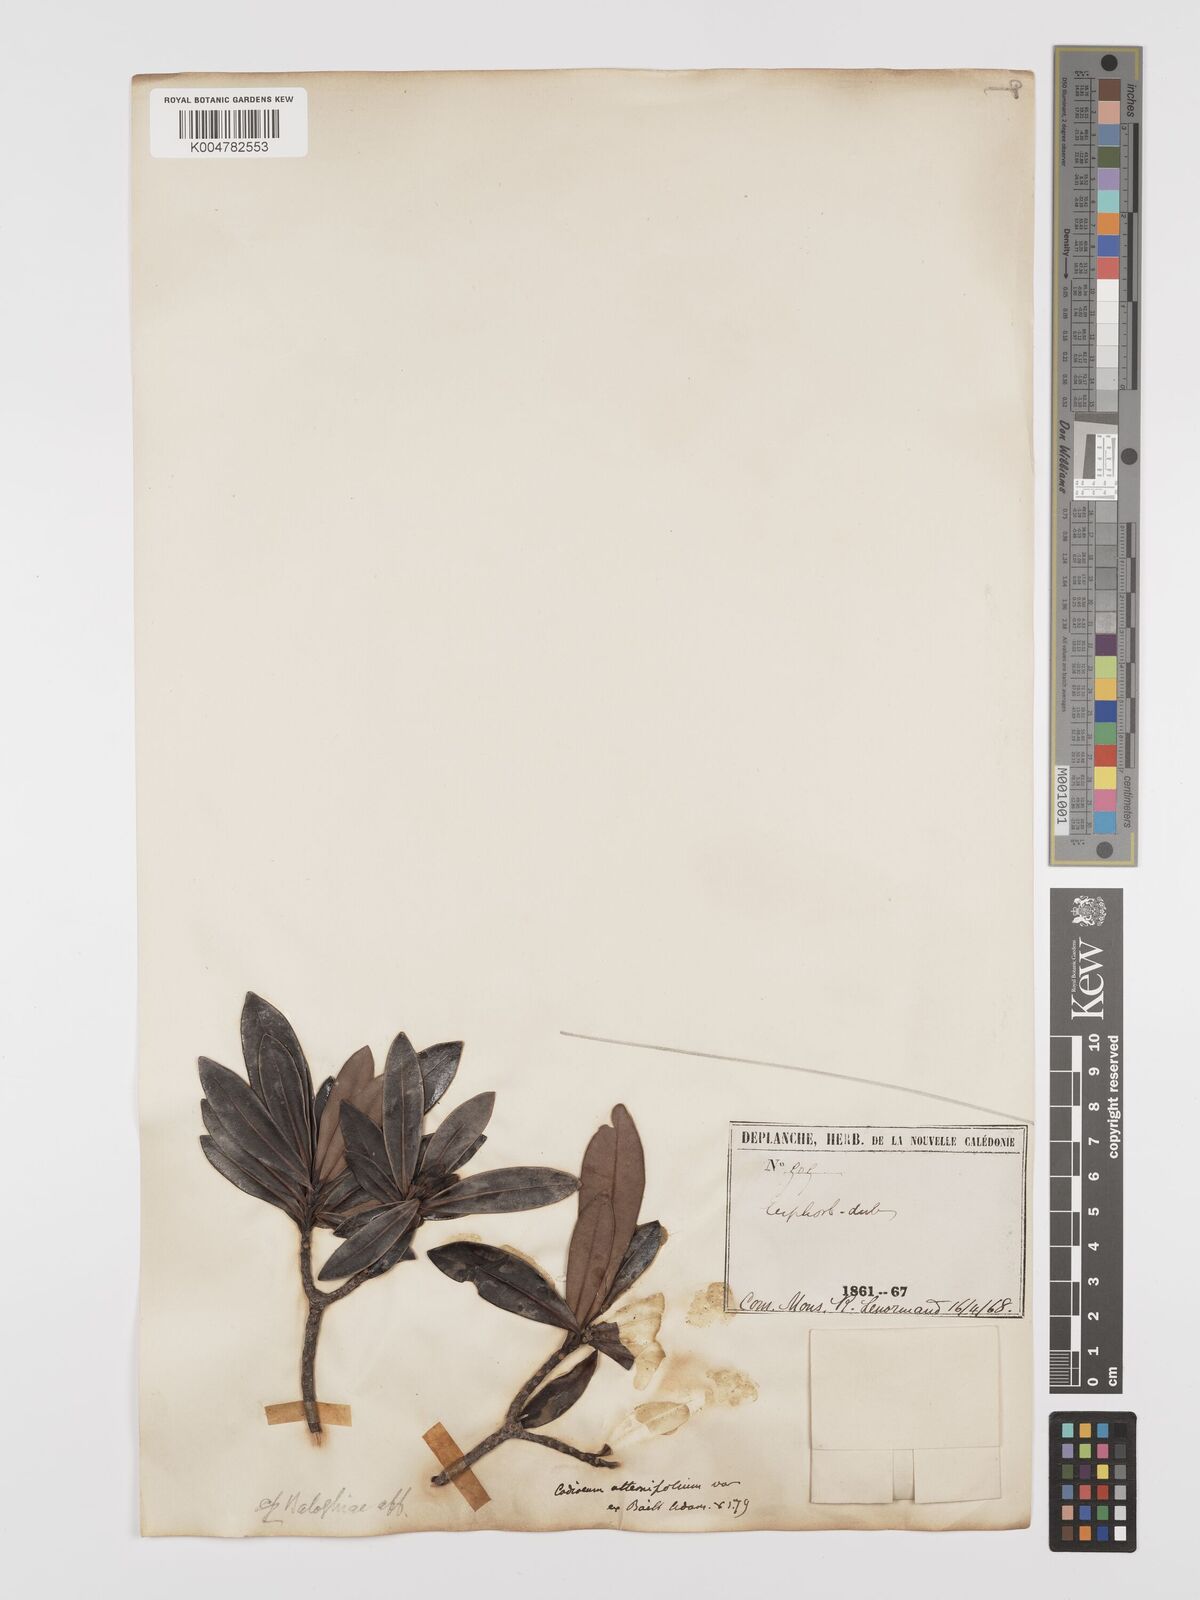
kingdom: Plantae
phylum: Tracheophyta
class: Magnoliopsida
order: Malpighiales
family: Euphorbiaceae
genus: Baloghia
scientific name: Baloghia alternifolia
